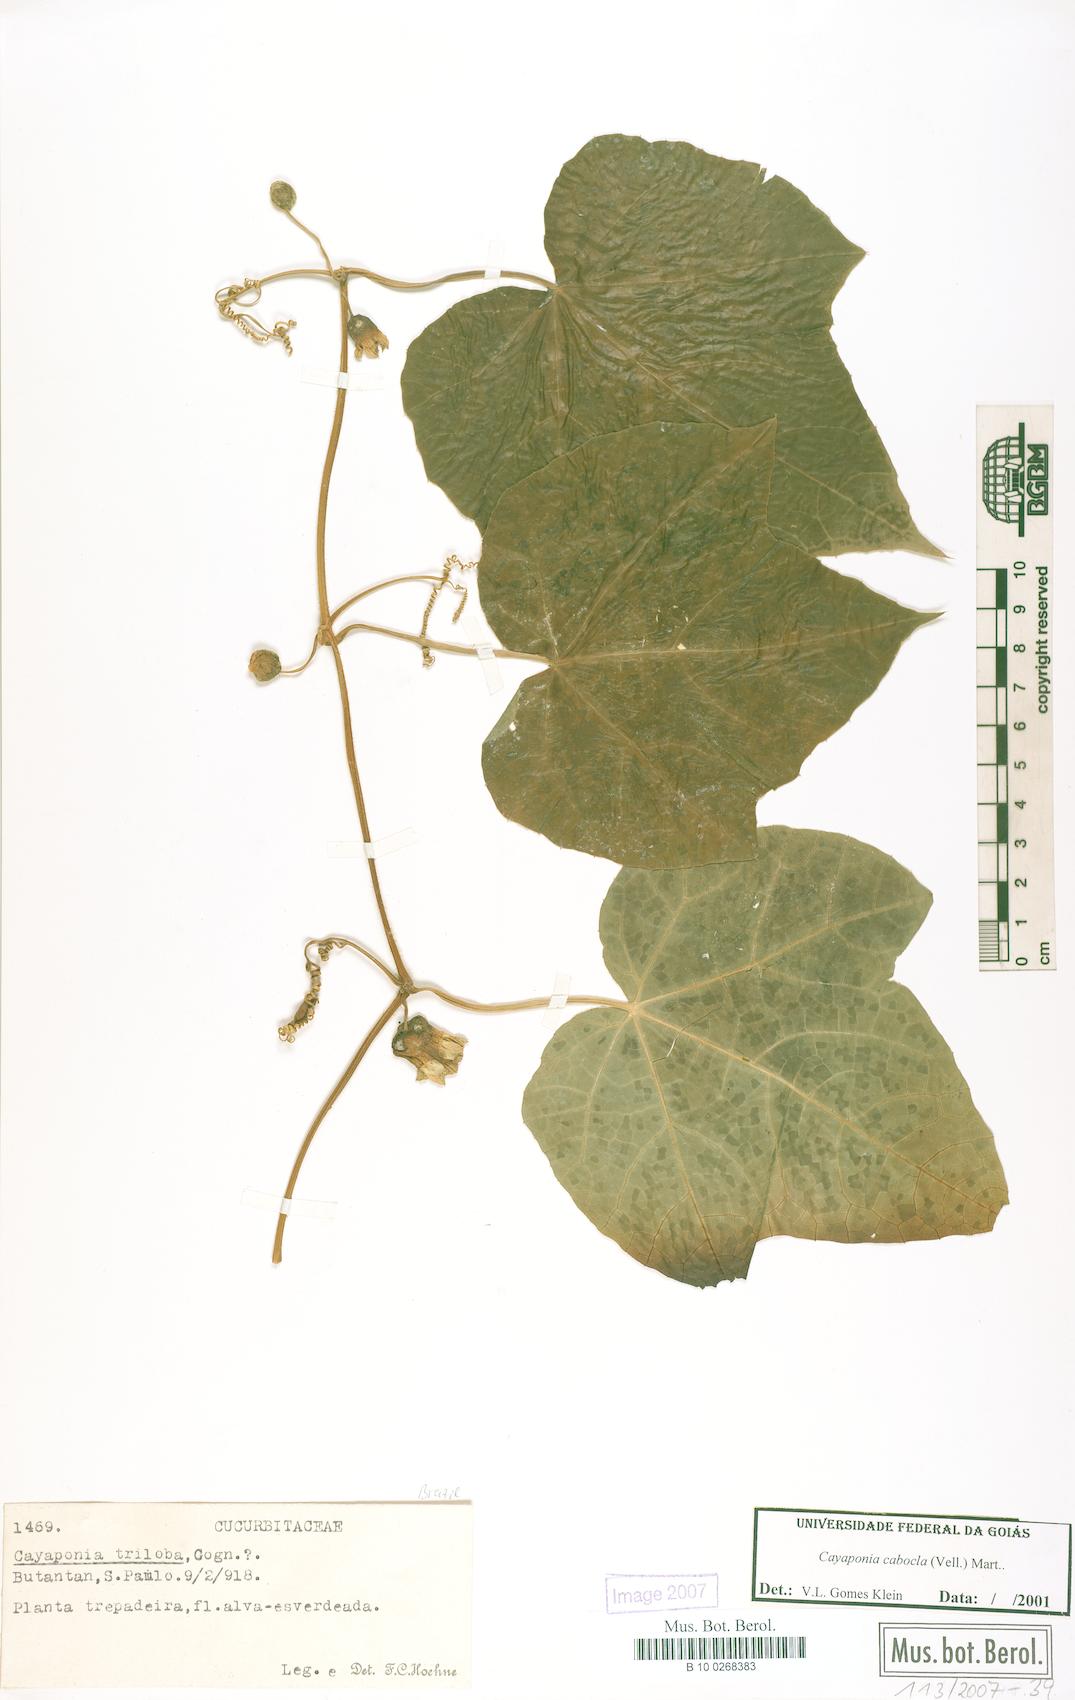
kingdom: Plantae
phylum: Tracheophyta
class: Magnoliopsida
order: Cucurbitales
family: Cucurbitaceae
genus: Cayaponia
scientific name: Cayaponia cabocla
